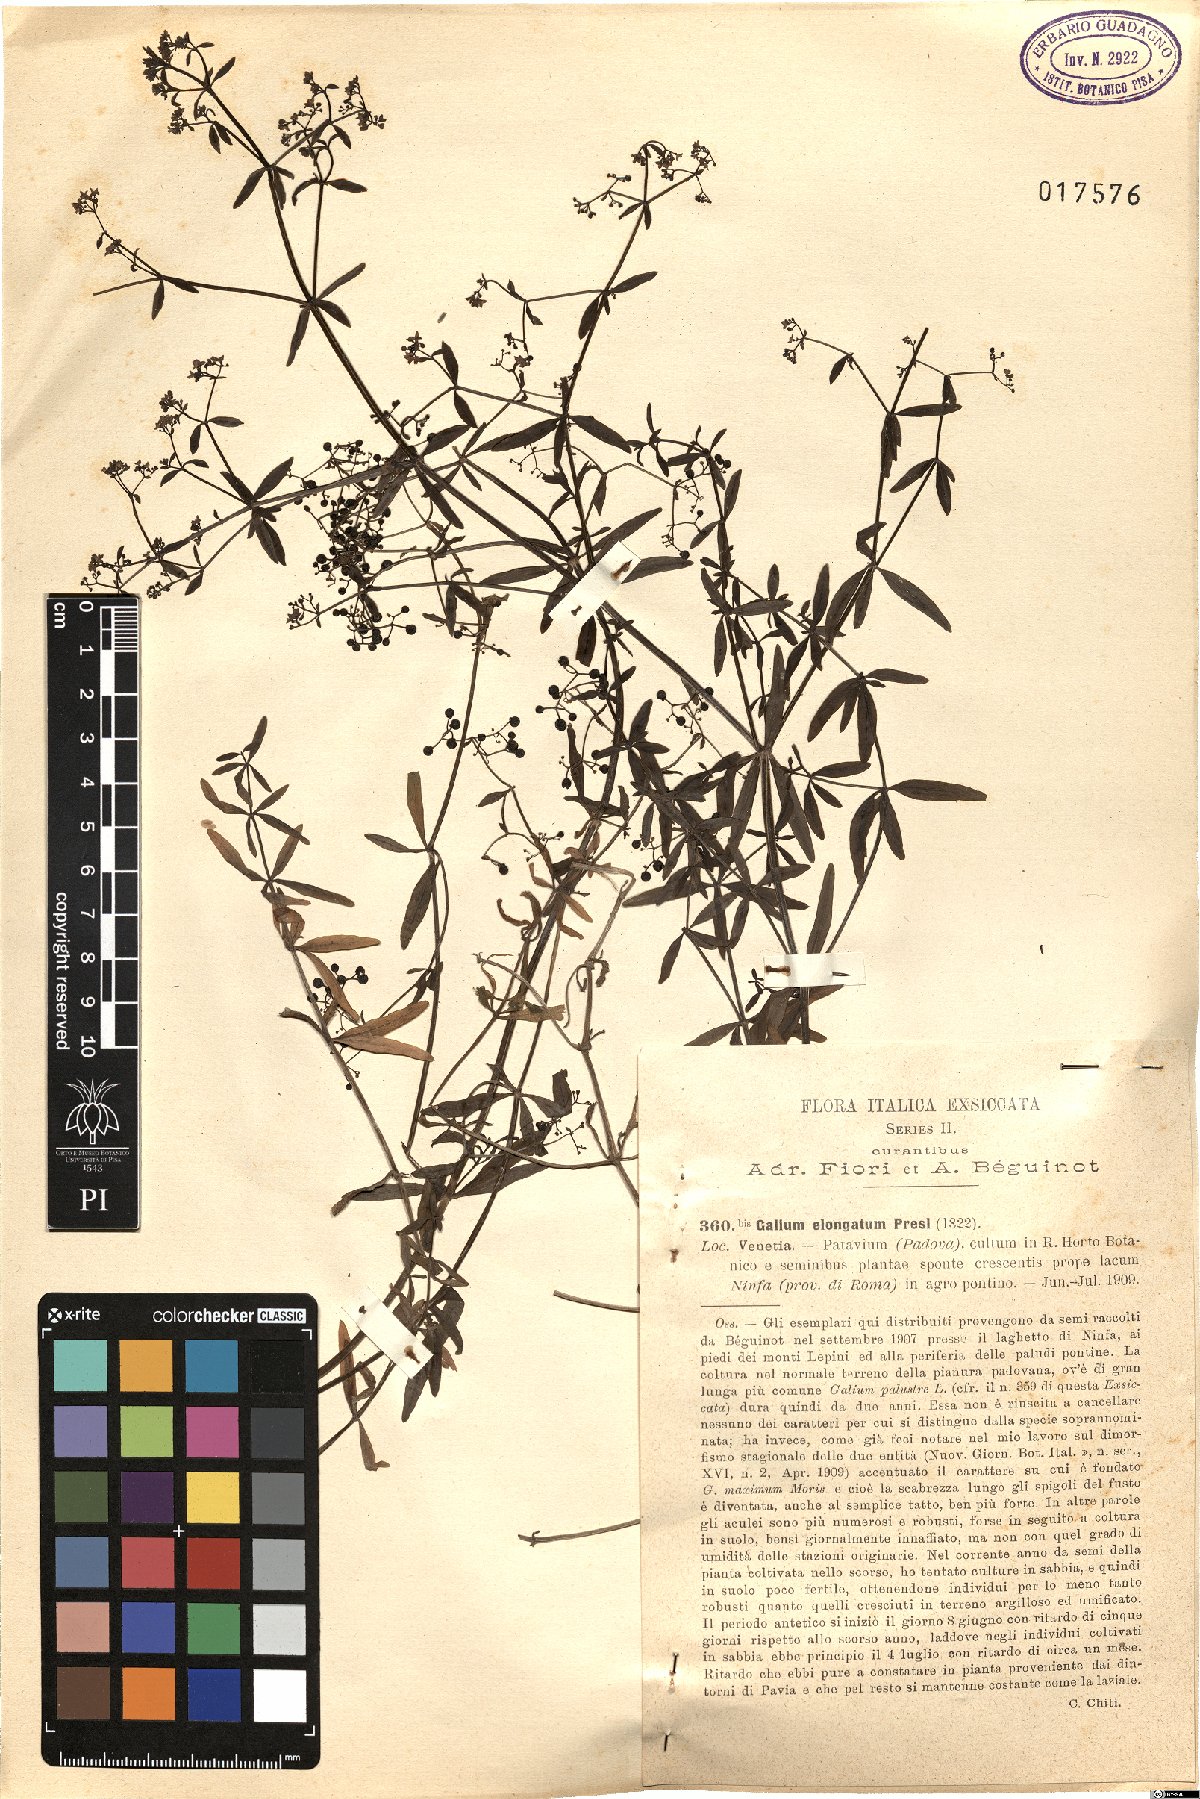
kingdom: Plantae
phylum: Tracheophyta
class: Magnoliopsida
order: Gentianales
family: Rubiaceae
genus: Galium
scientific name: Galium elongatum
